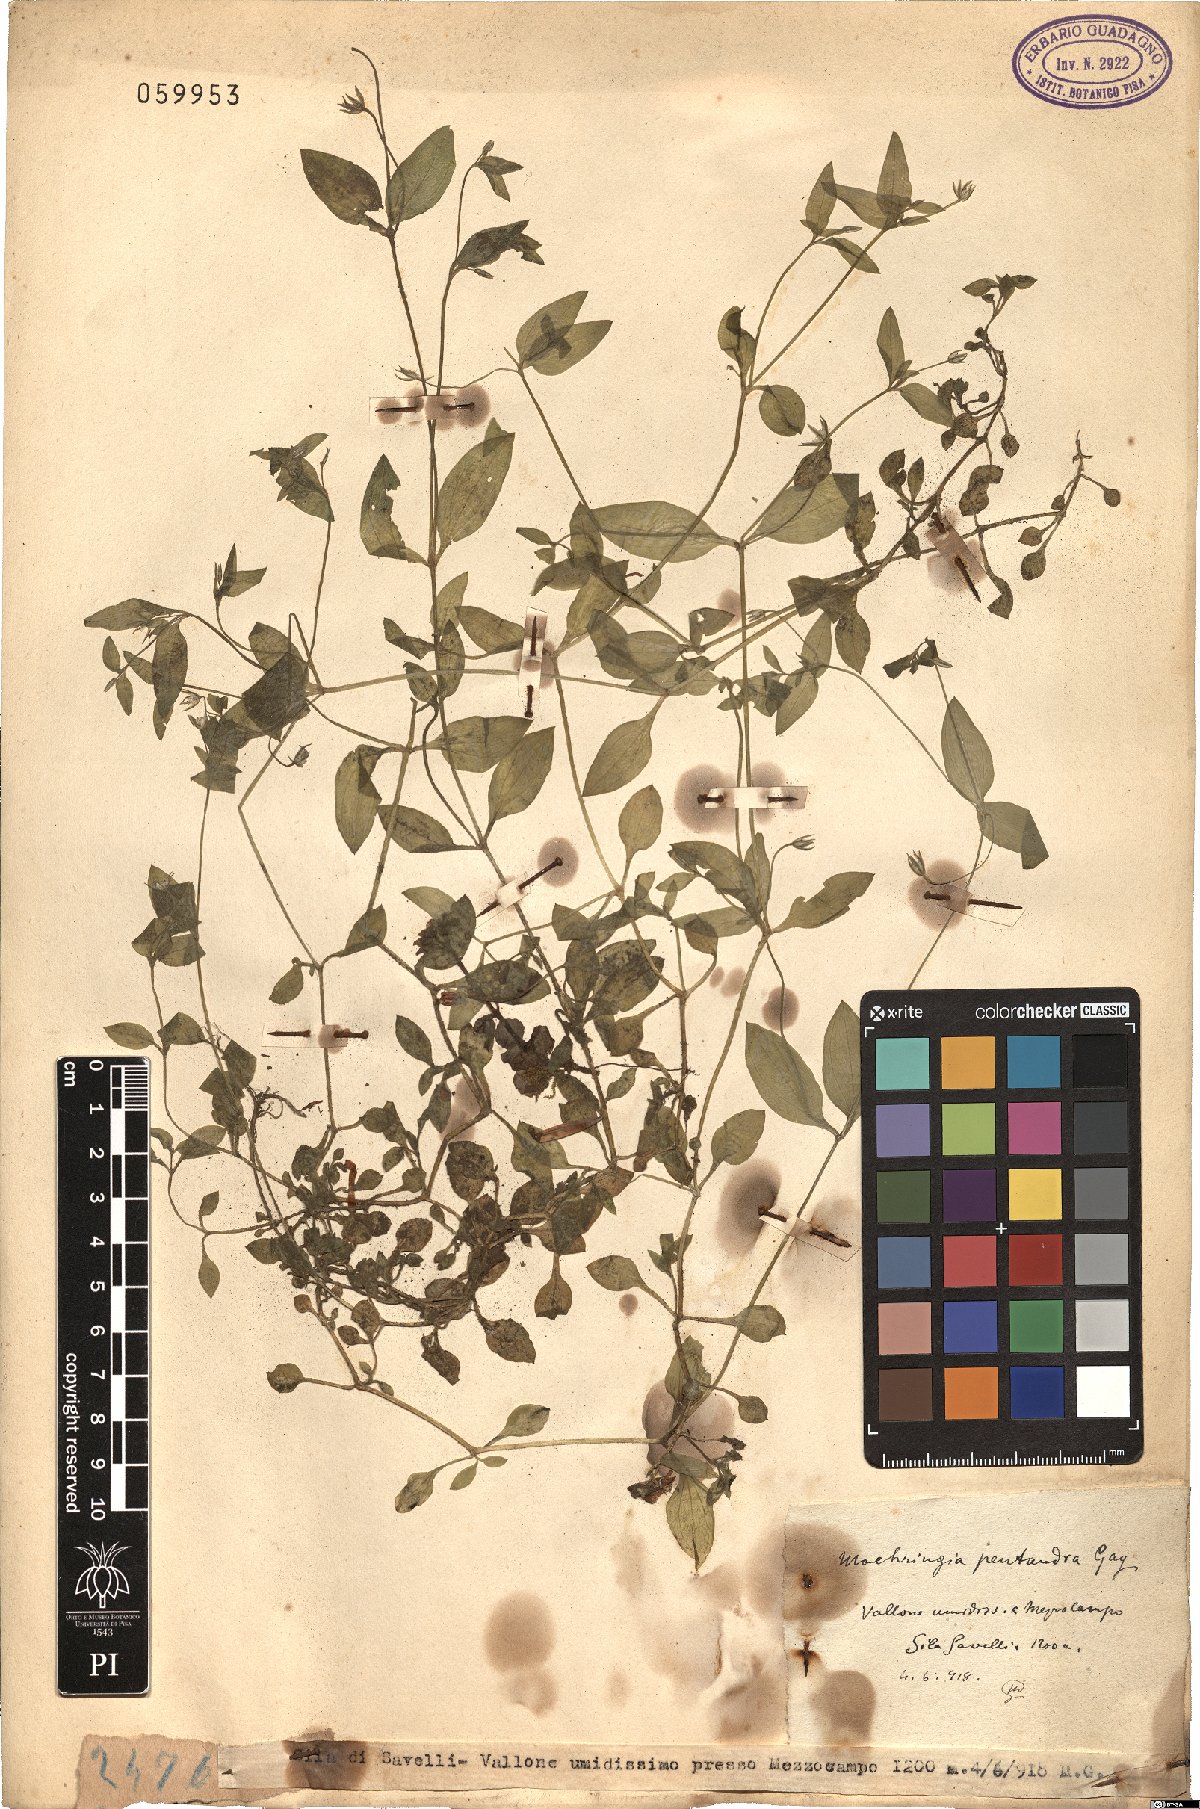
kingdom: Plantae
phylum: Tracheophyta
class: Magnoliopsida
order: Caryophyllales
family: Caryophyllaceae
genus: Moehringia
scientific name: Moehringia pentandra
